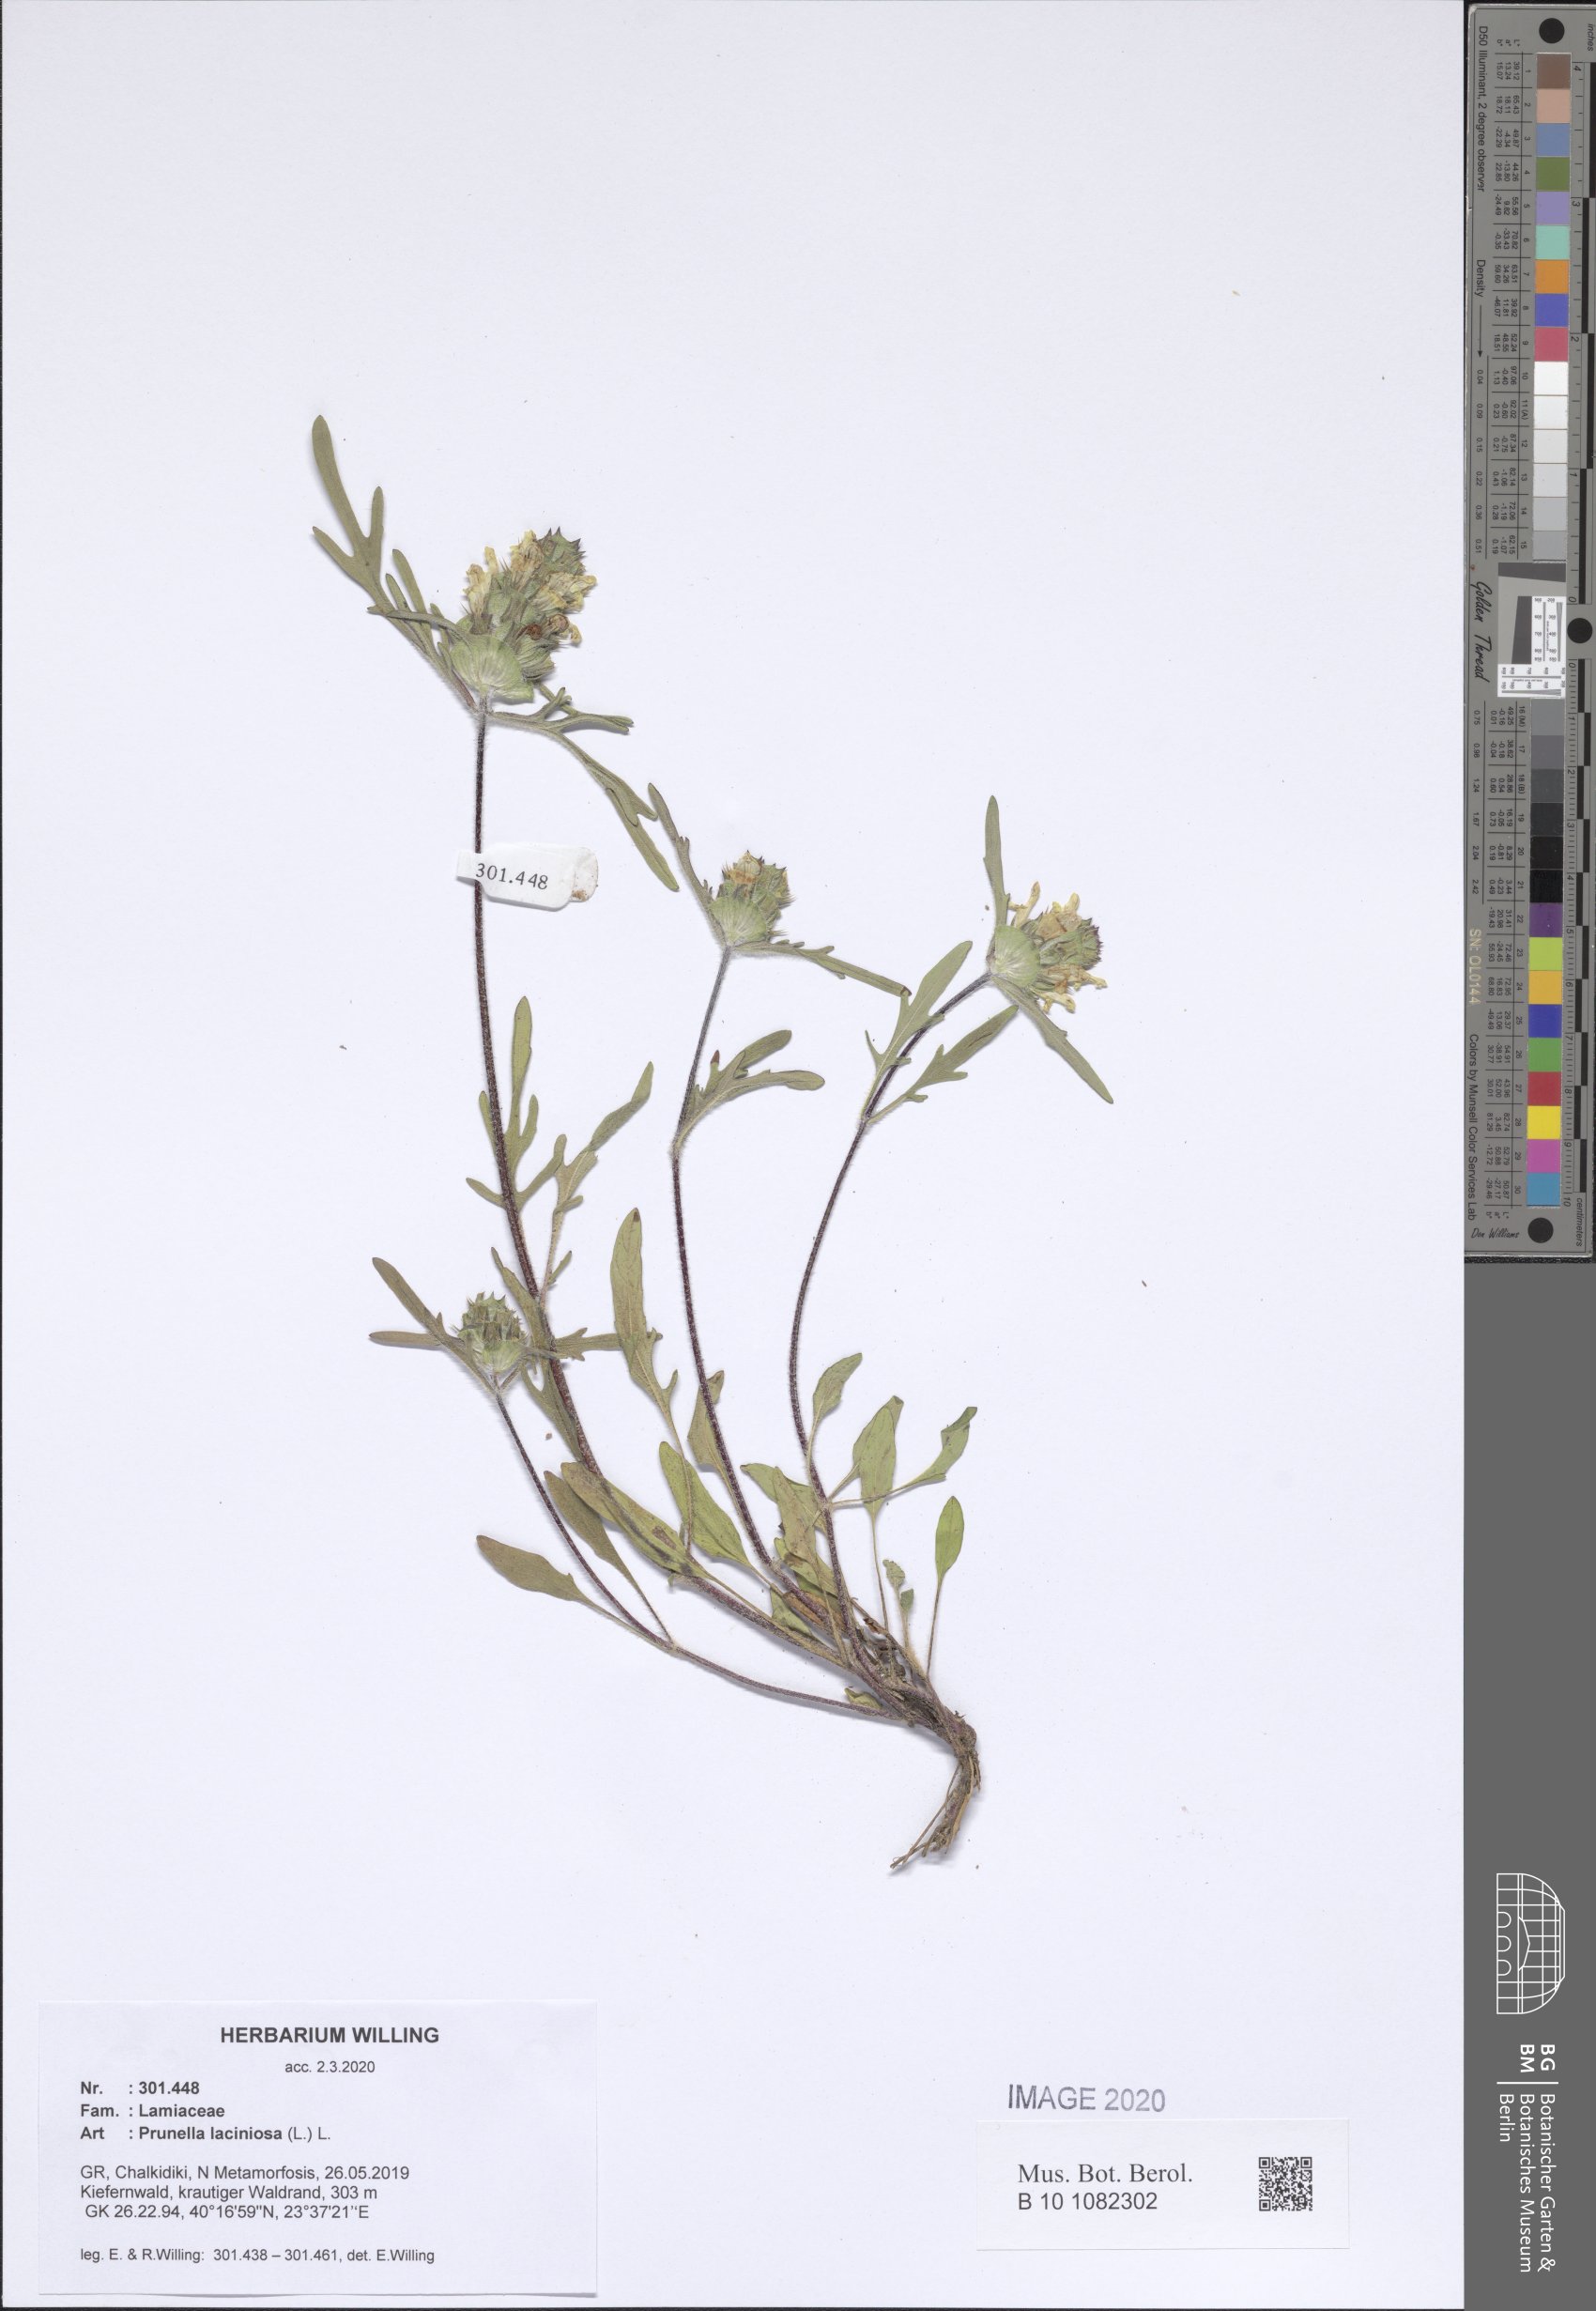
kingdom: Plantae
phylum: Tracheophyta
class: Magnoliopsida
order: Lamiales
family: Lamiaceae
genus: Prunella
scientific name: Prunella laciniata
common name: Cut-leaved selfheal
